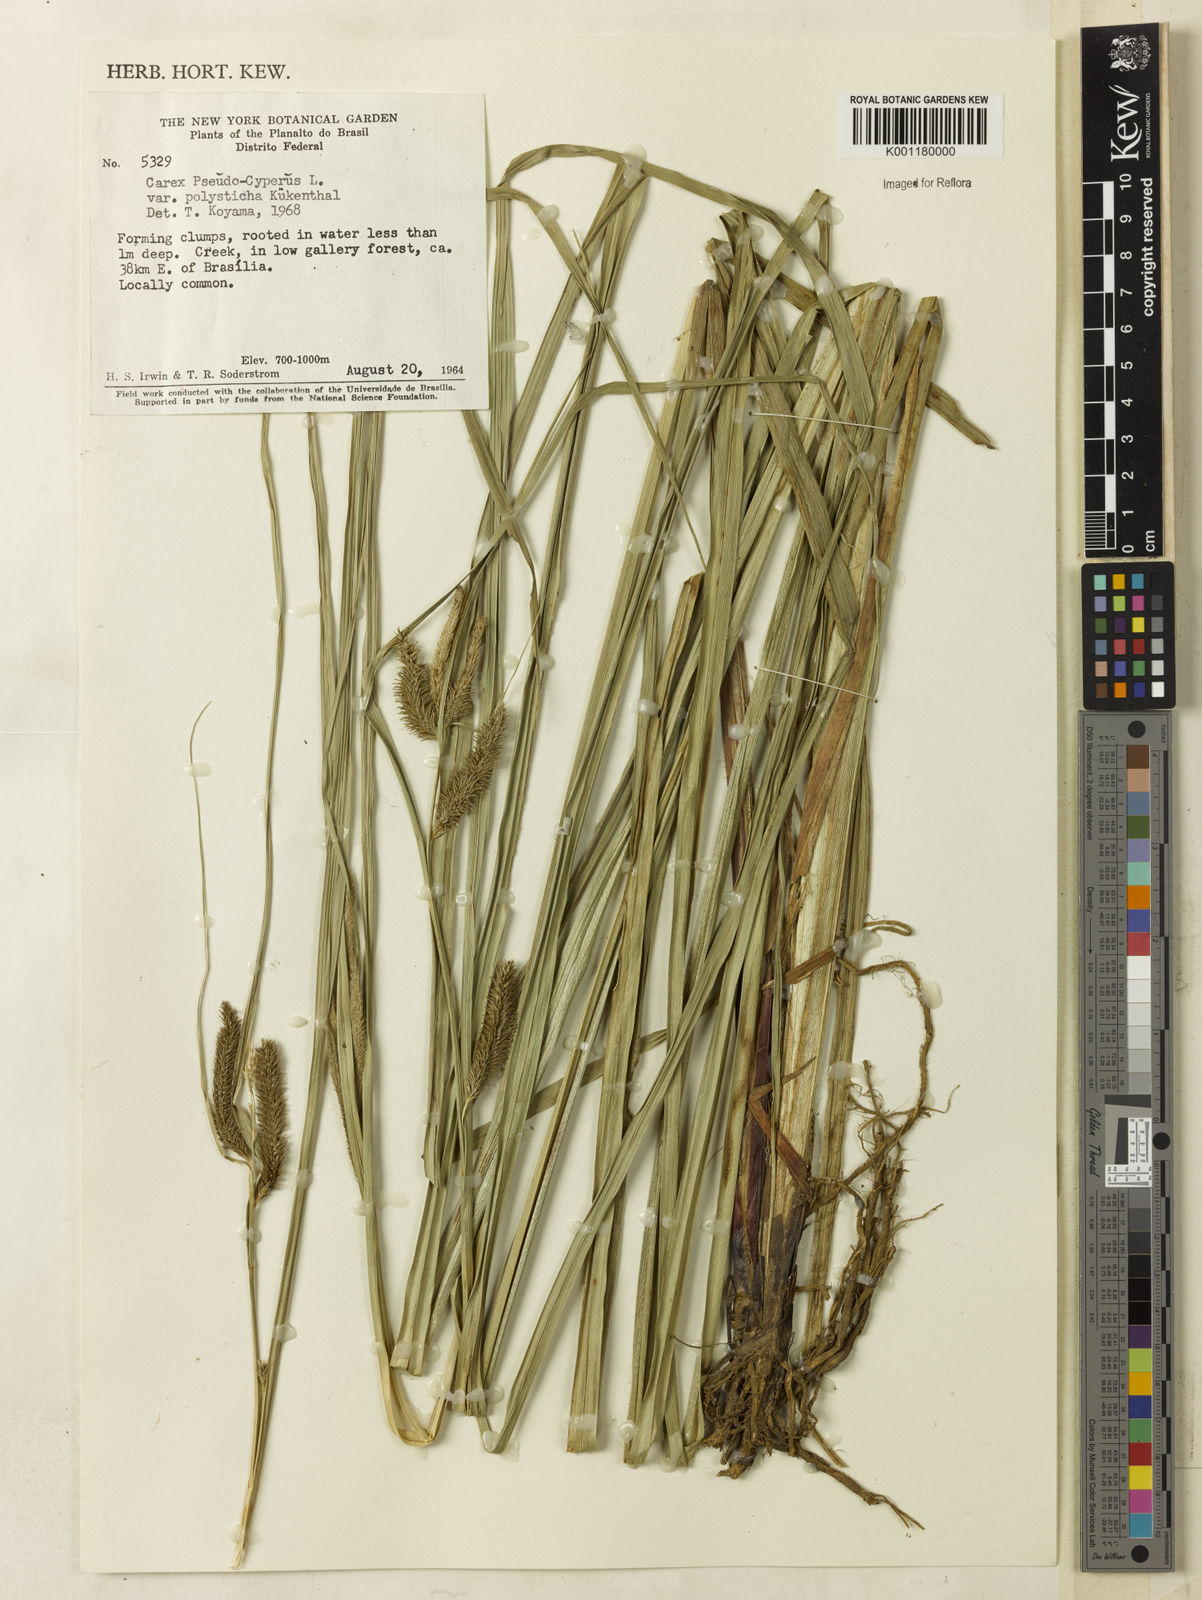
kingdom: Plantae
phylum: Tracheophyta
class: Liliopsida
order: Poales
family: Cyperaceae
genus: Carex
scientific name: Carex polysticha
